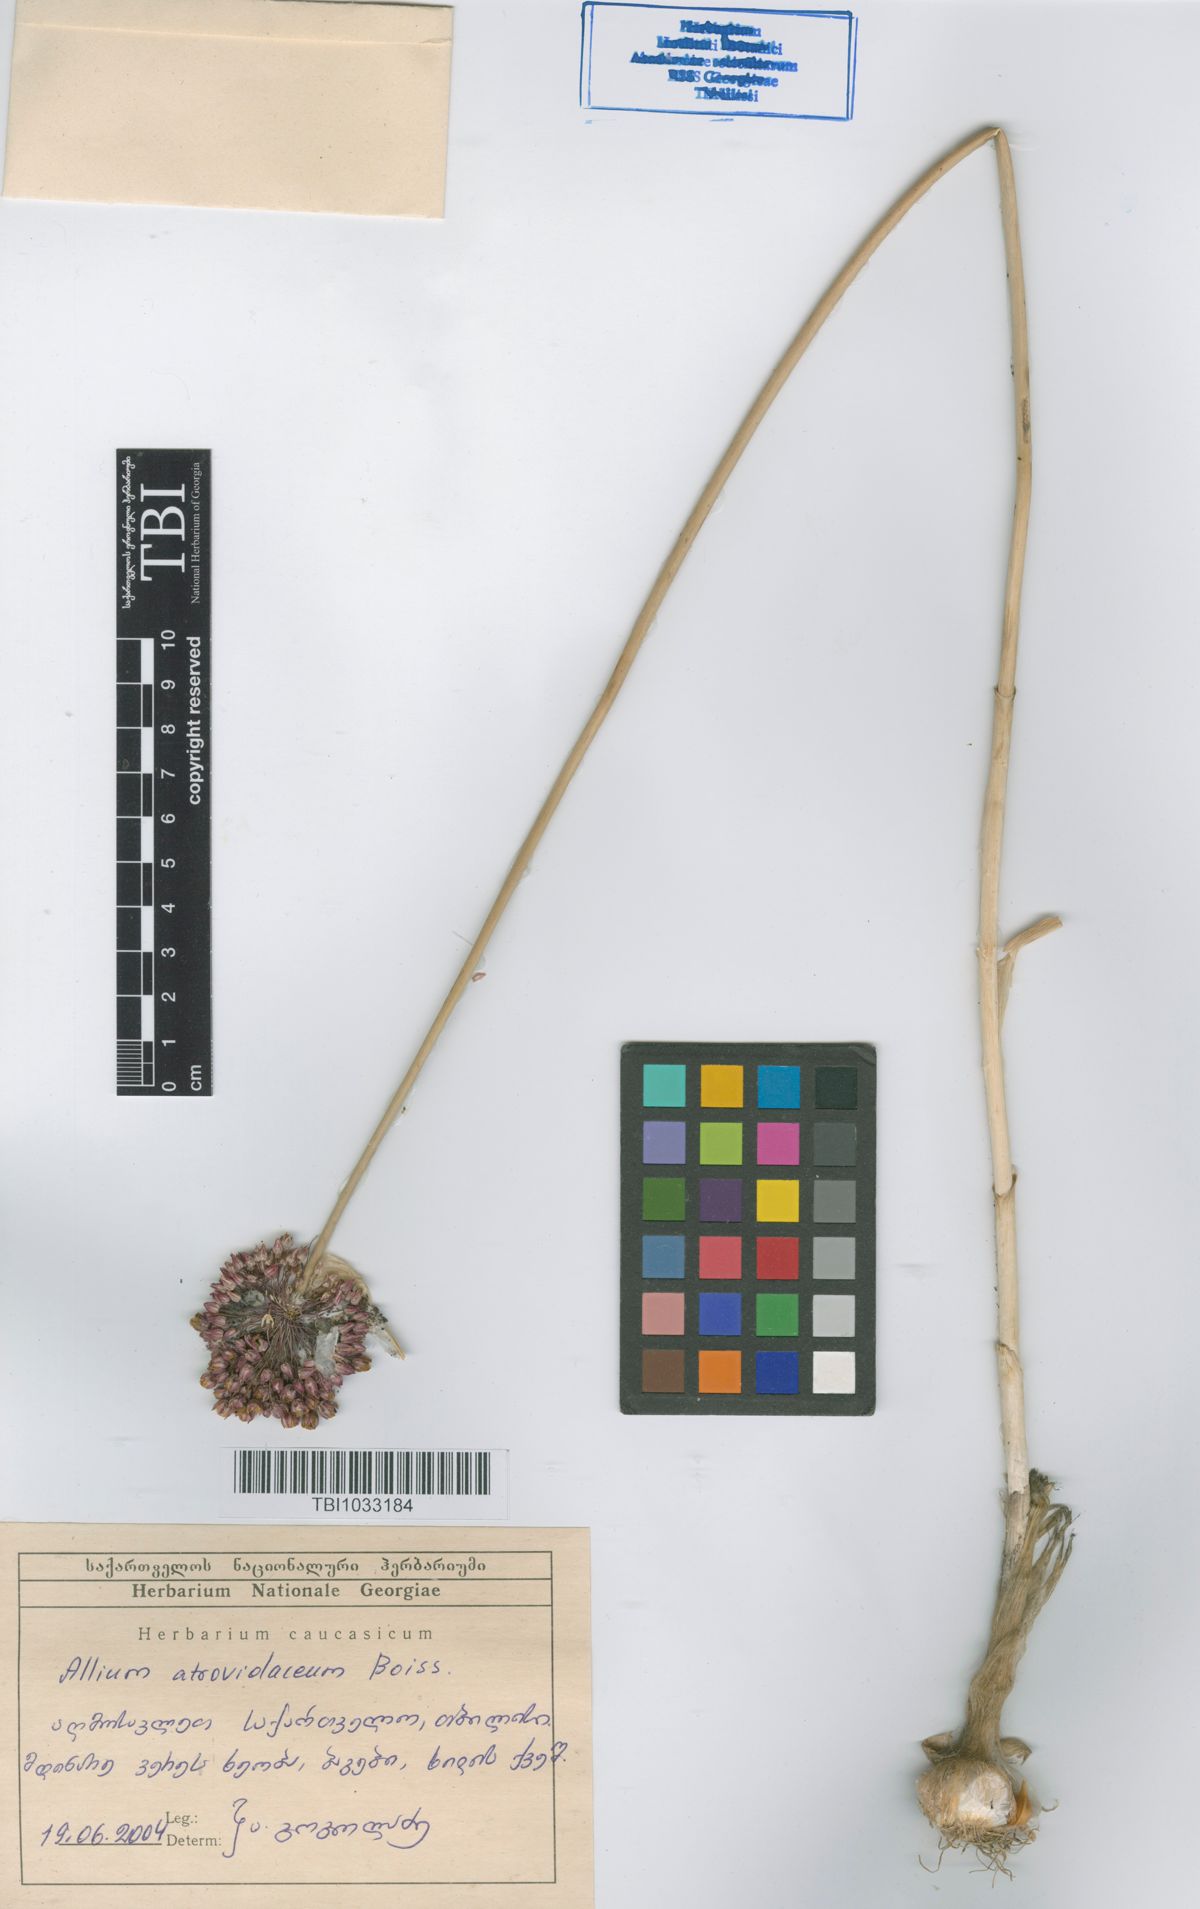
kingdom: Plantae
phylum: Tracheophyta
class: Liliopsida
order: Asparagales
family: Amaryllidaceae
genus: Allium
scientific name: Allium atroviolaceum
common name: Broadleaf wild leek
